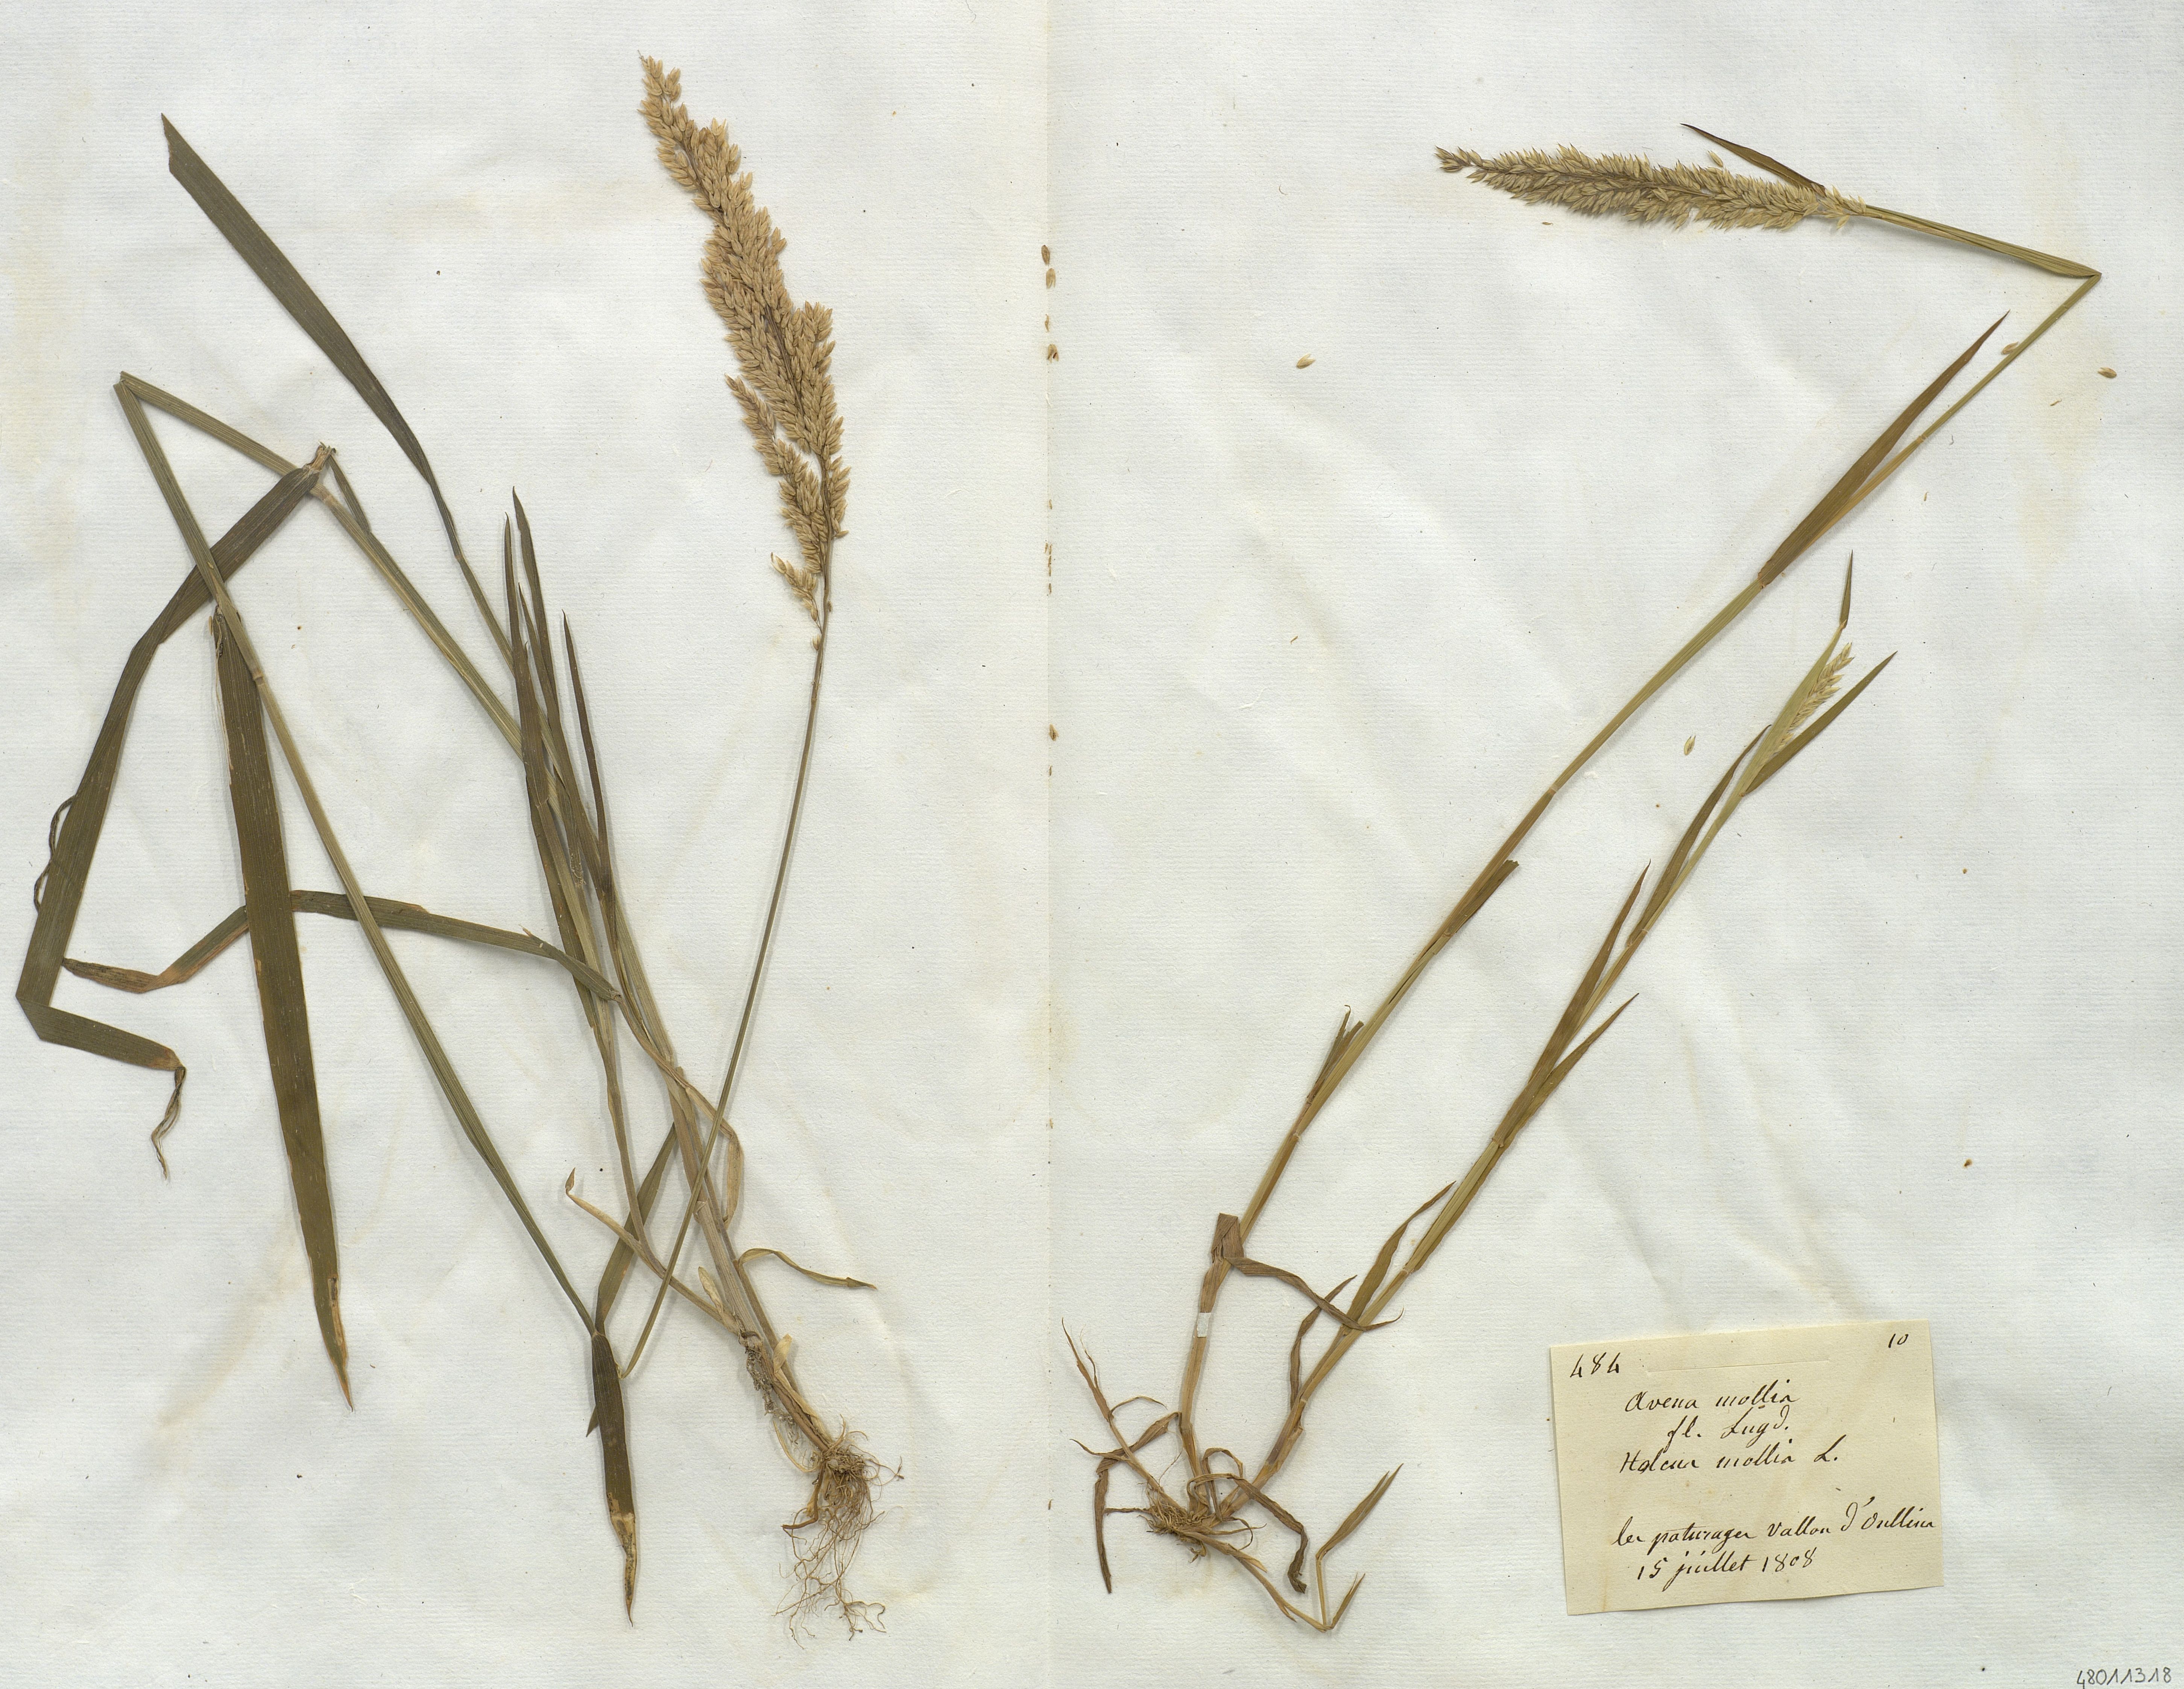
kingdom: Plantae
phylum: Tracheophyta
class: Liliopsida
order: Poales
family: Poaceae
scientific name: Poaceae
